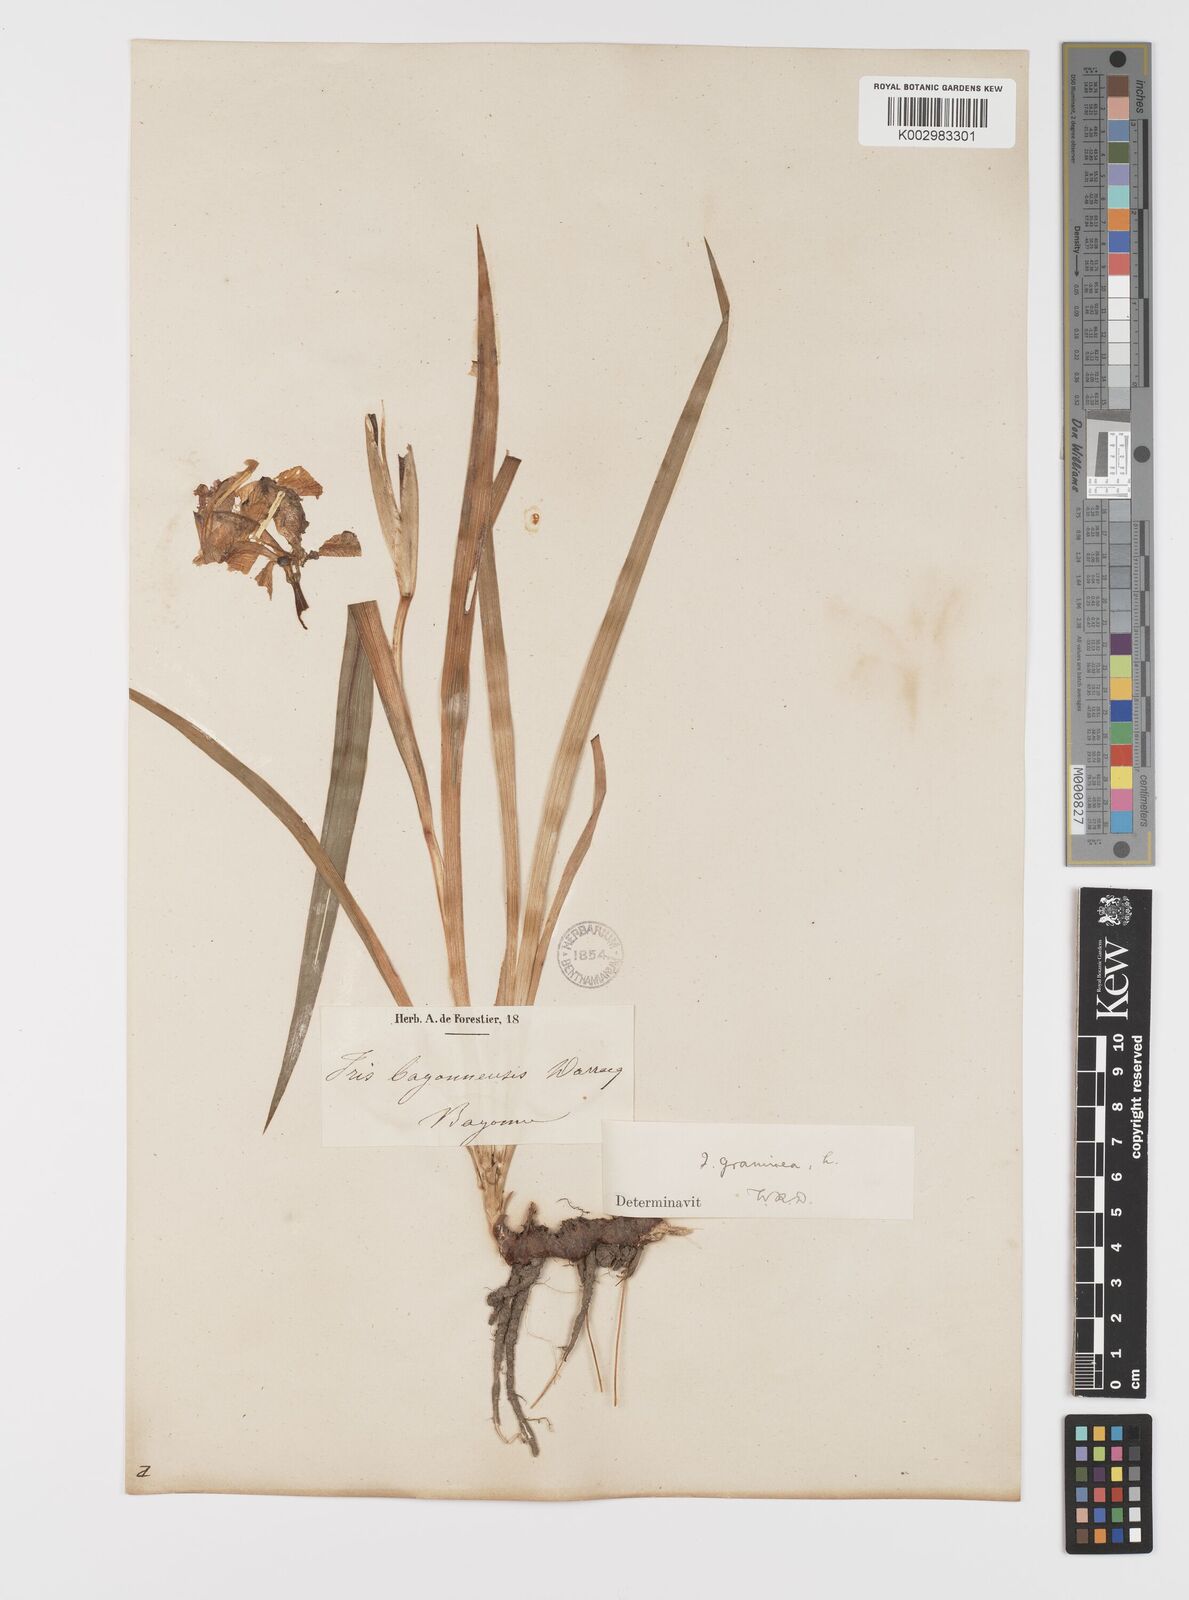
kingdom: Plantae
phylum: Tracheophyta
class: Liliopsida
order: Asparagales
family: Iridaceae
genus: Iris
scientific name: Iris graminea
